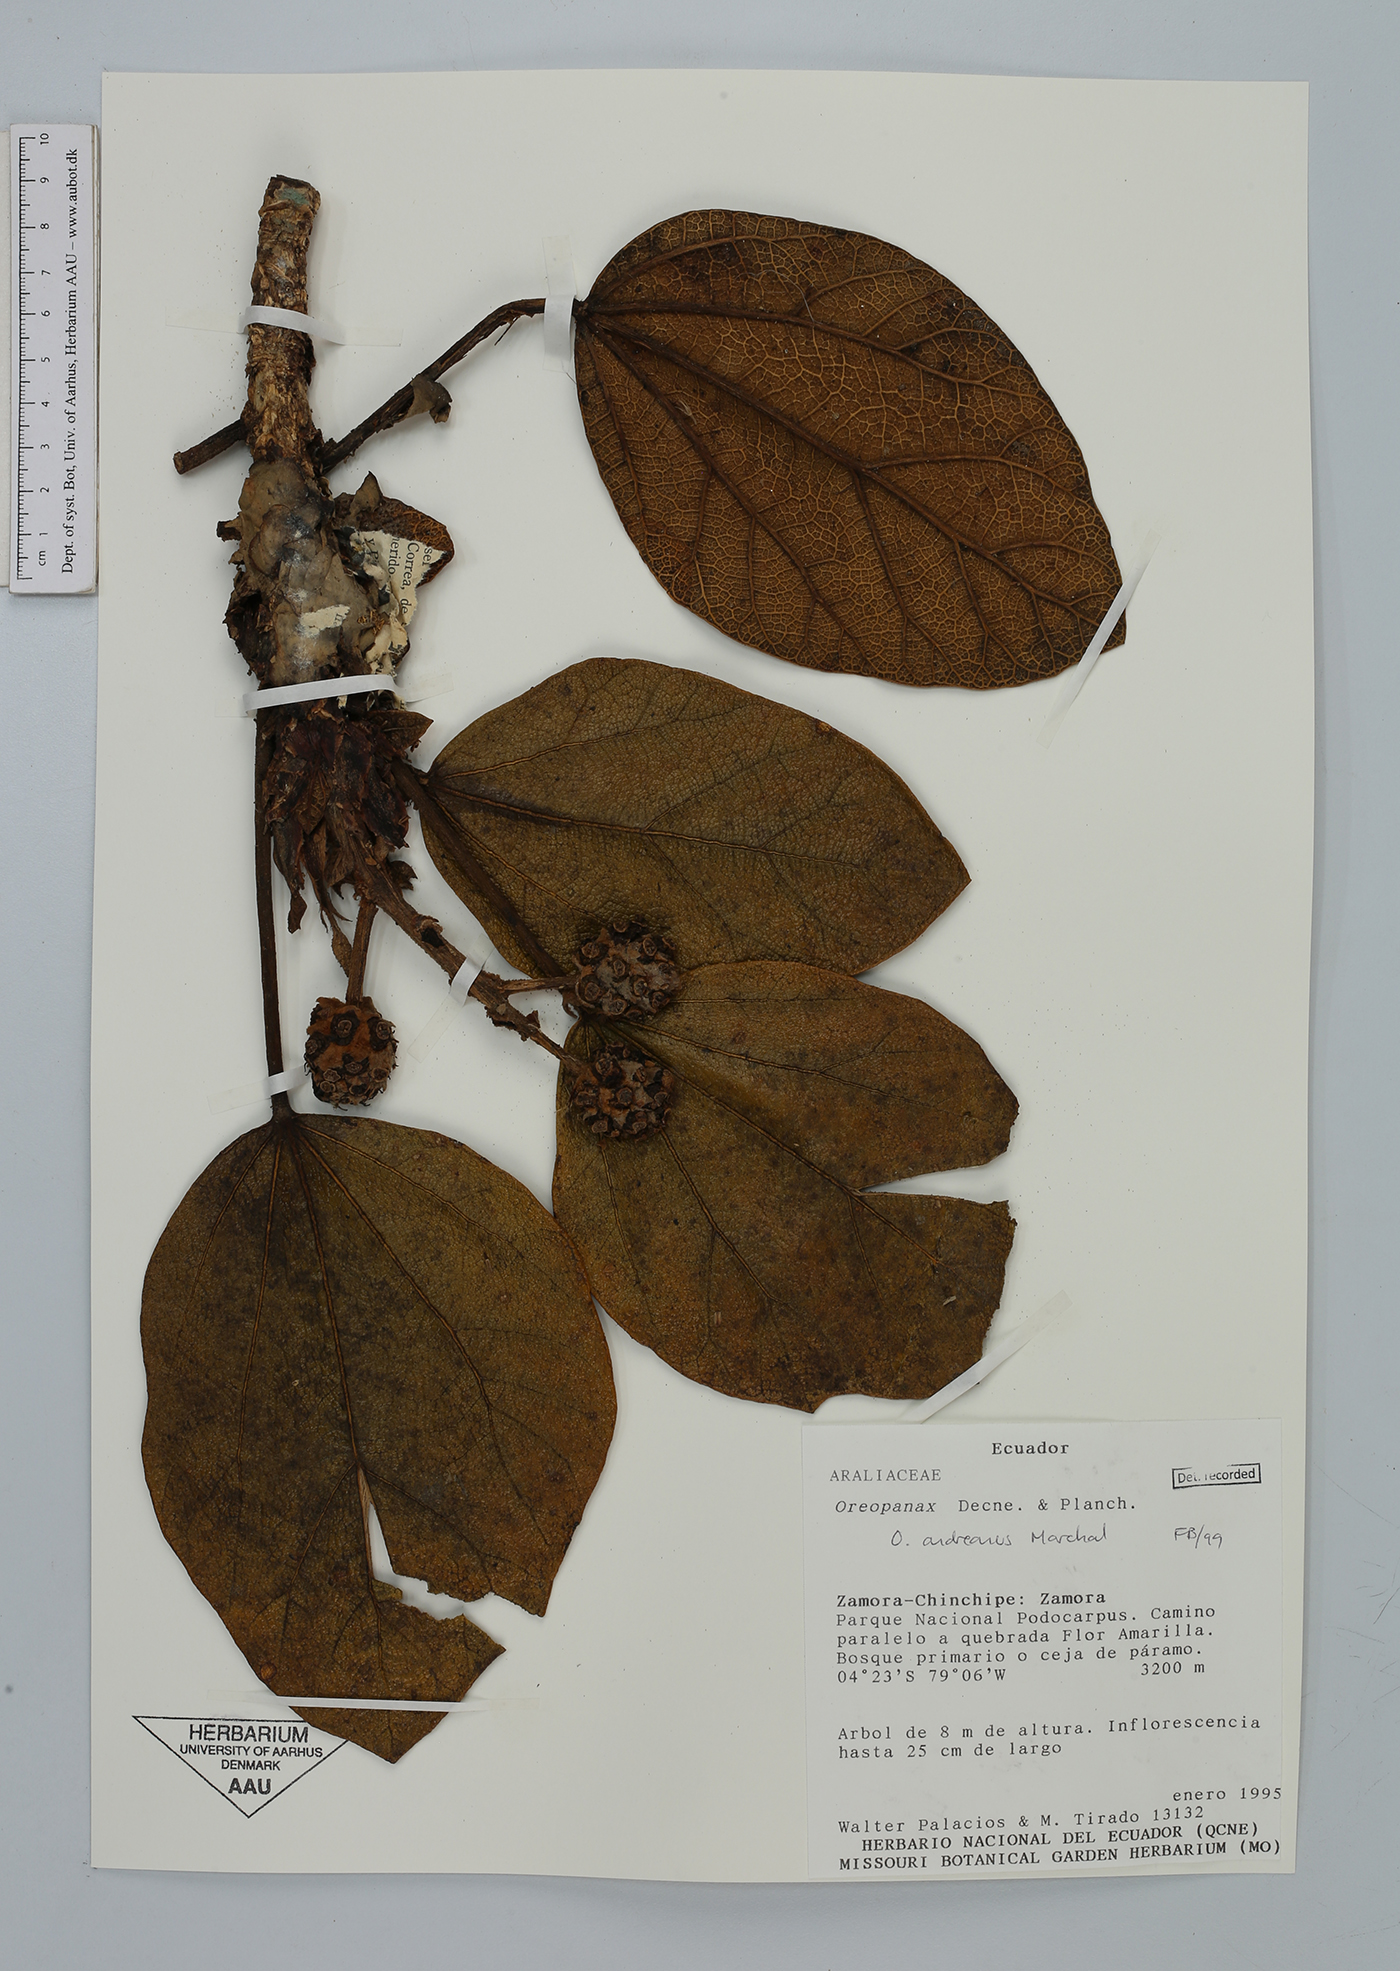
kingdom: Plantae
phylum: Tracheophyta
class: Magnoliopsida
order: Apiales
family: Araliaceae
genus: Oreopanax
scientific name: Oreopanax andreanus
